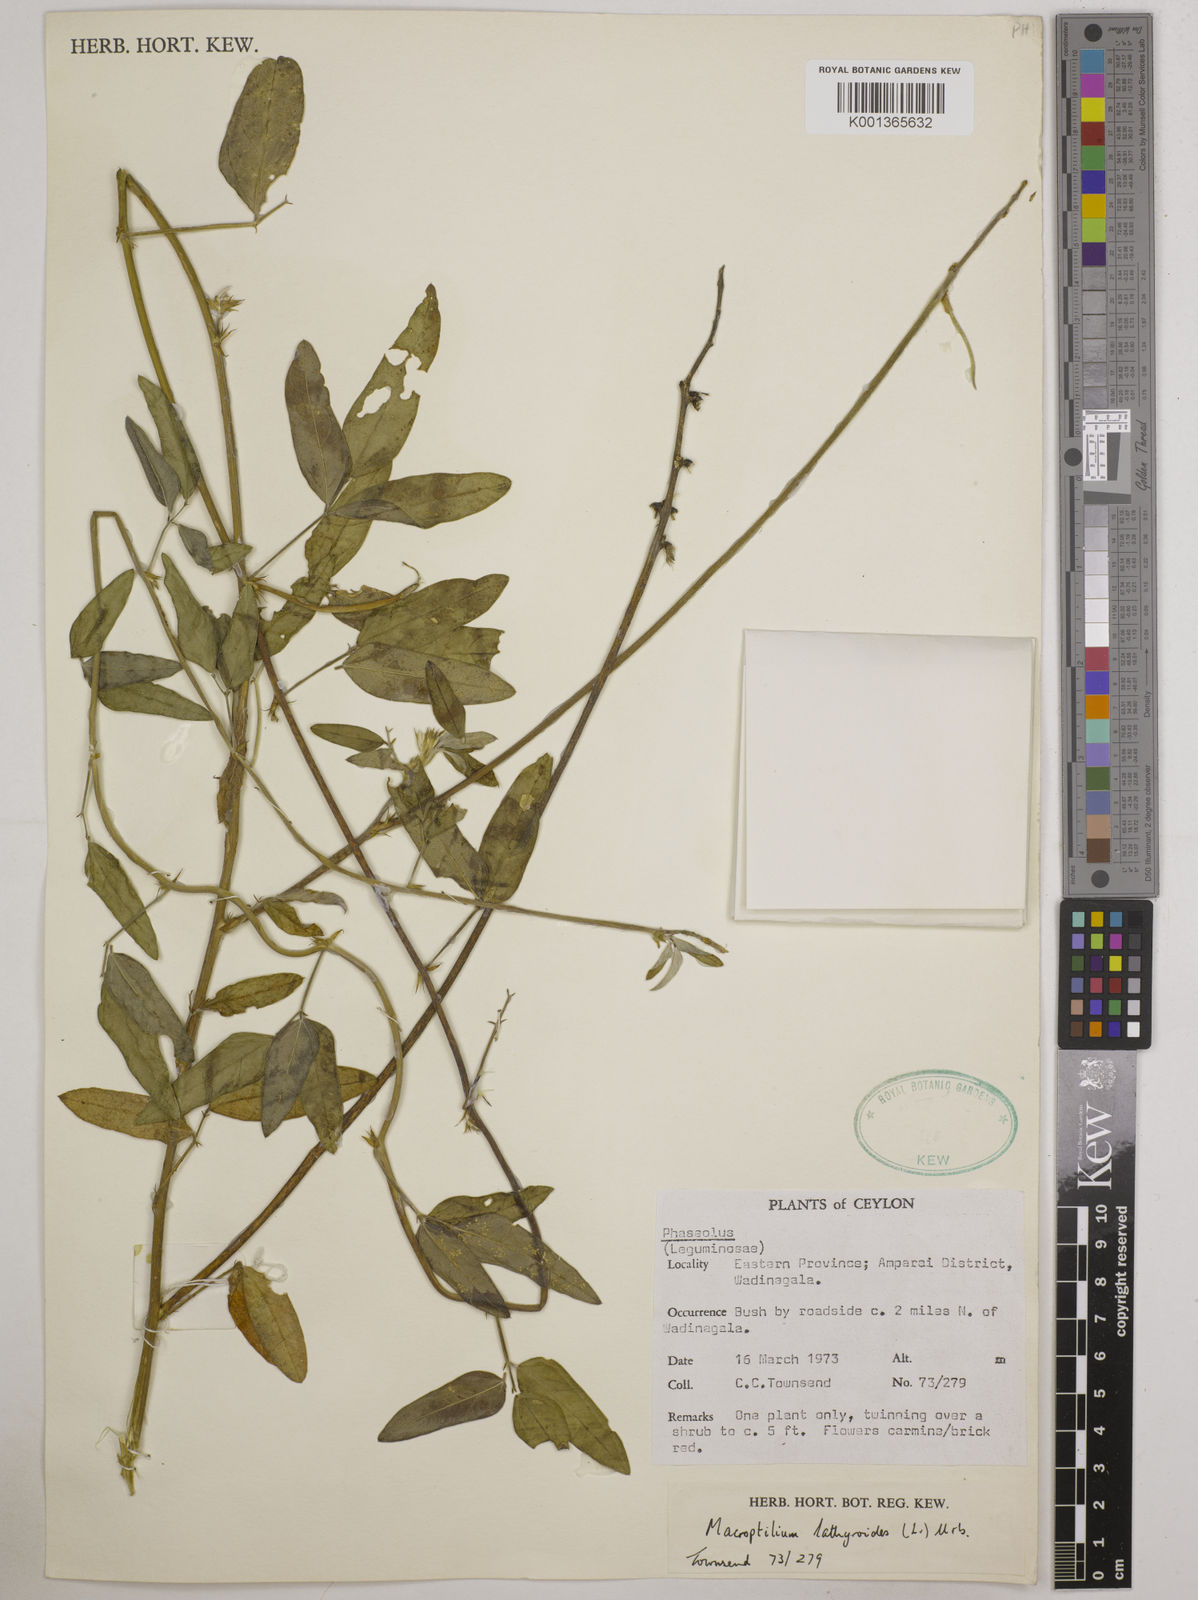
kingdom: Plantae
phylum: Tracheophyta
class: Magnoliopsida
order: Fabales
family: Fabaceae
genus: Macroptilium
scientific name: Macroptilium lathyroides
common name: Wild bushbean
